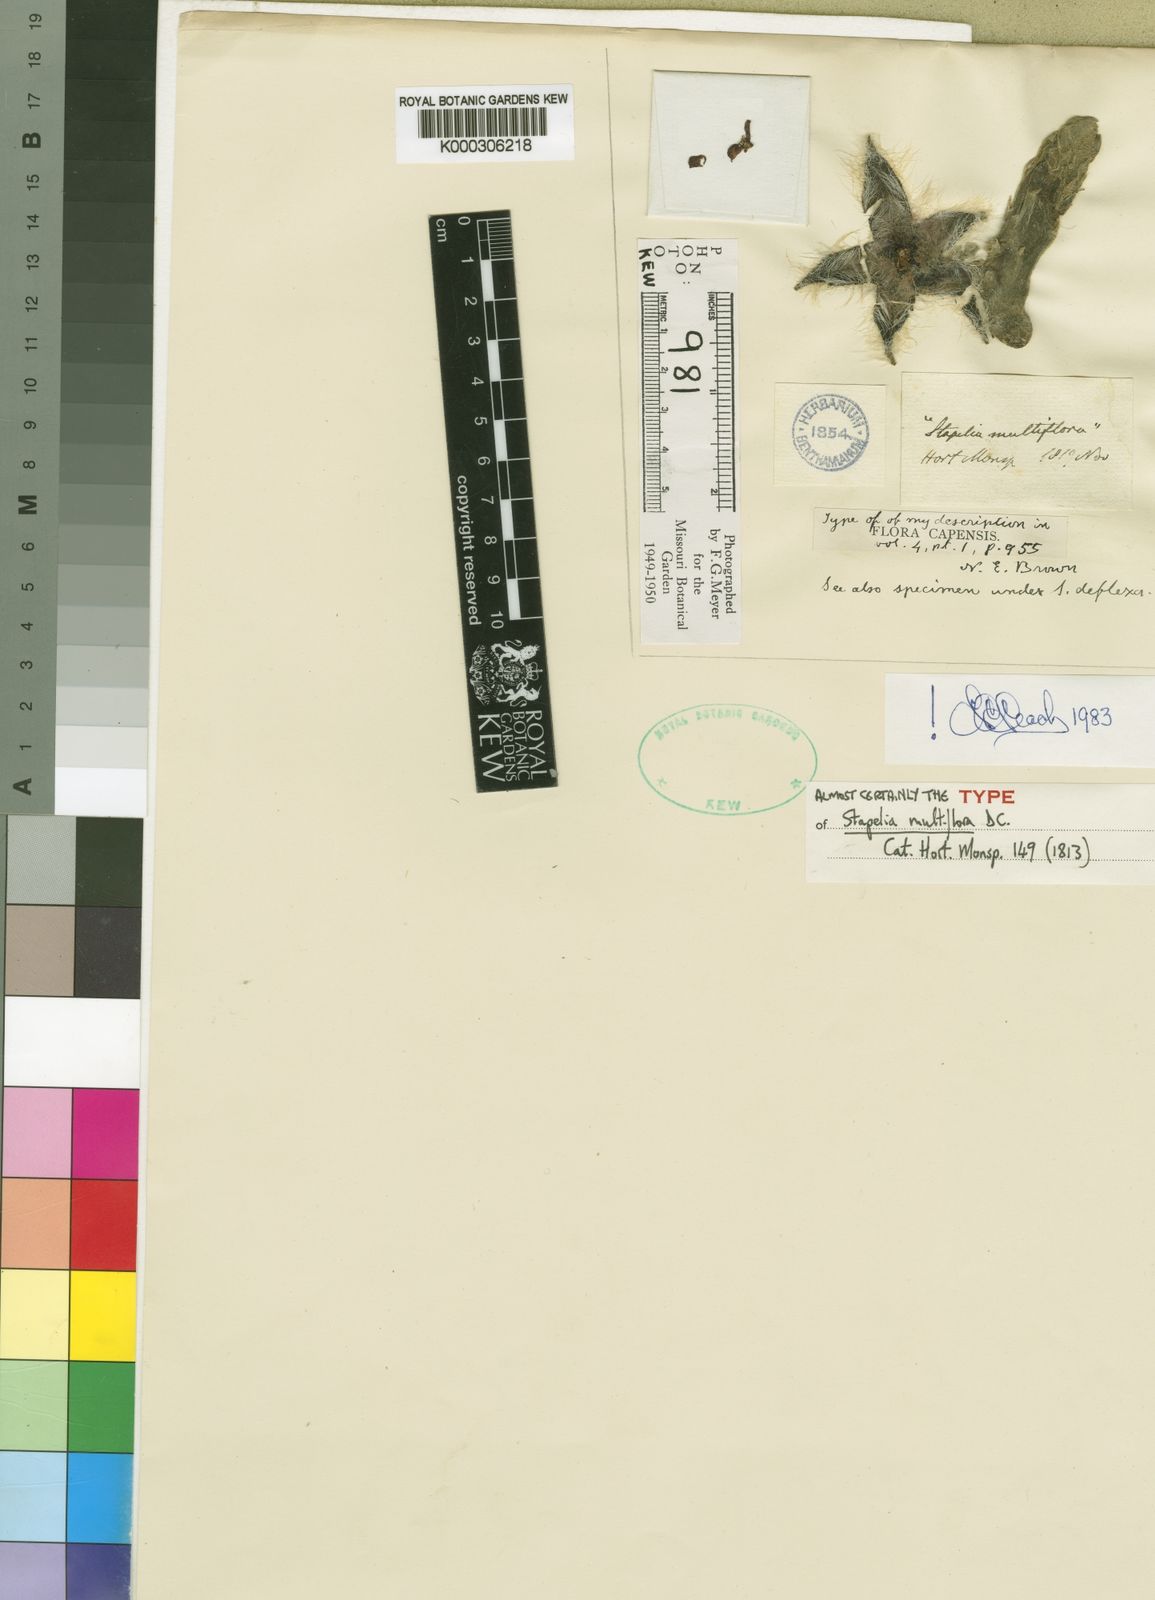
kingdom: Plantae
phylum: Tracheophyta
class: Magnoliopsida
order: Gentianales
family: Apocynaceae
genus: Ceropegia
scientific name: Ceropegia barklyana
